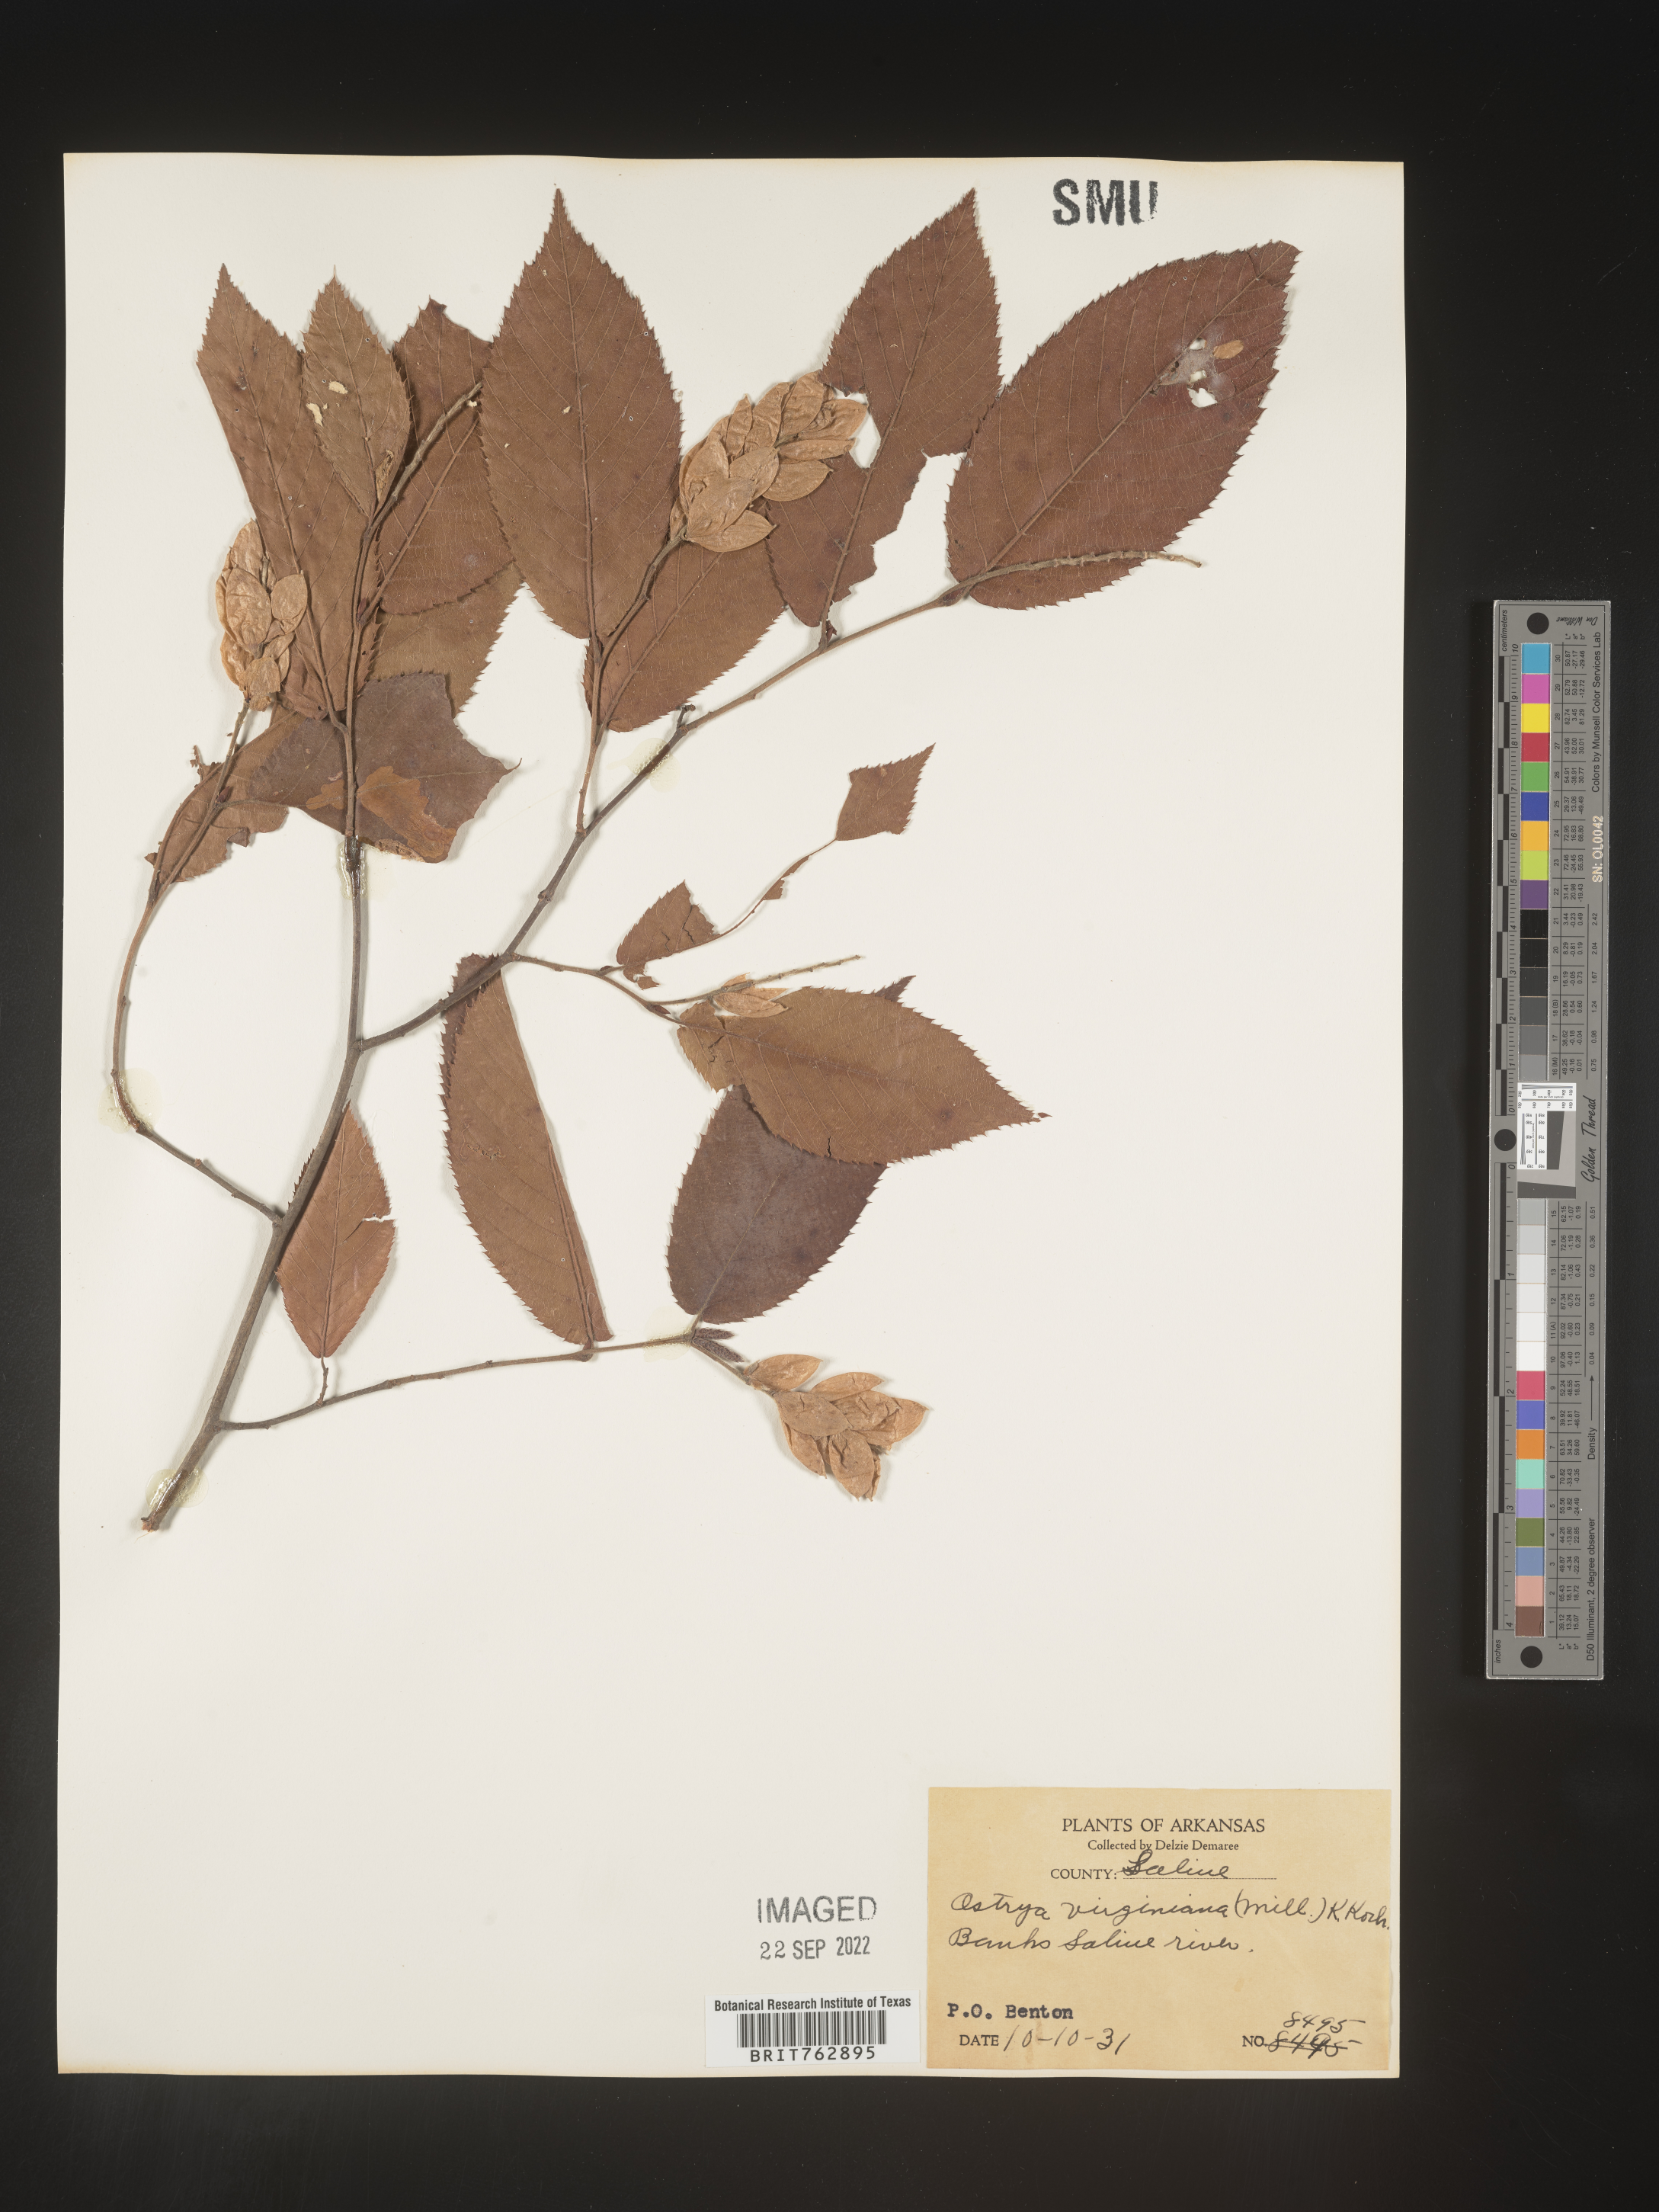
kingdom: Plantae
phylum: Tracheophyta
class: Magnoliopsida
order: Fagales
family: Betulaceae
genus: Ostrya
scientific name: Ostrya virginiana
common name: Ironwood
